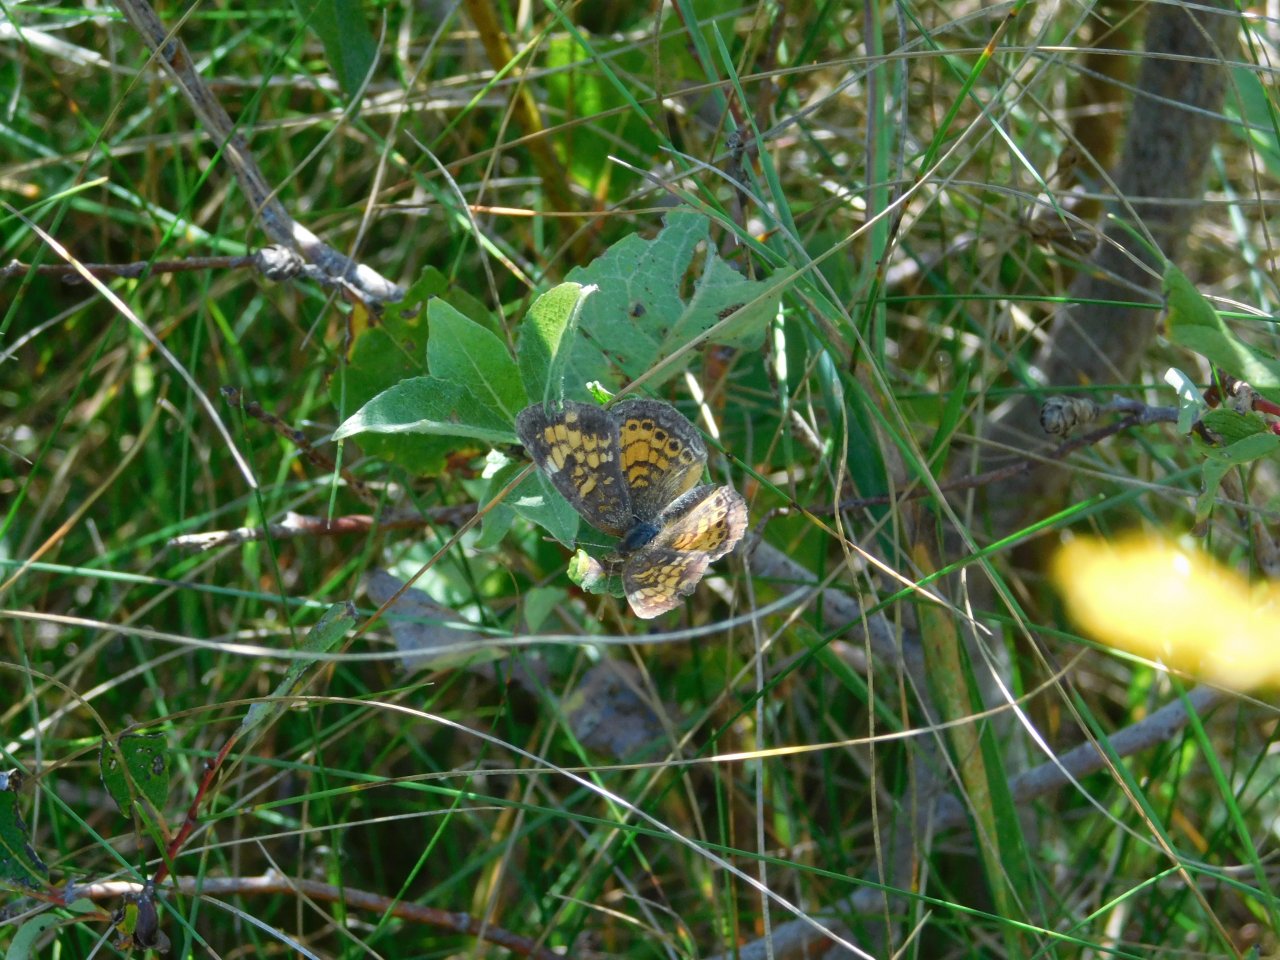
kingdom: Animalia
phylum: Arthropoda
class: Insecta
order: Lepidoptera
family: Nymphalidae
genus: Phyciodes
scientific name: Phyciodes tharos
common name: Pearl Crescent
